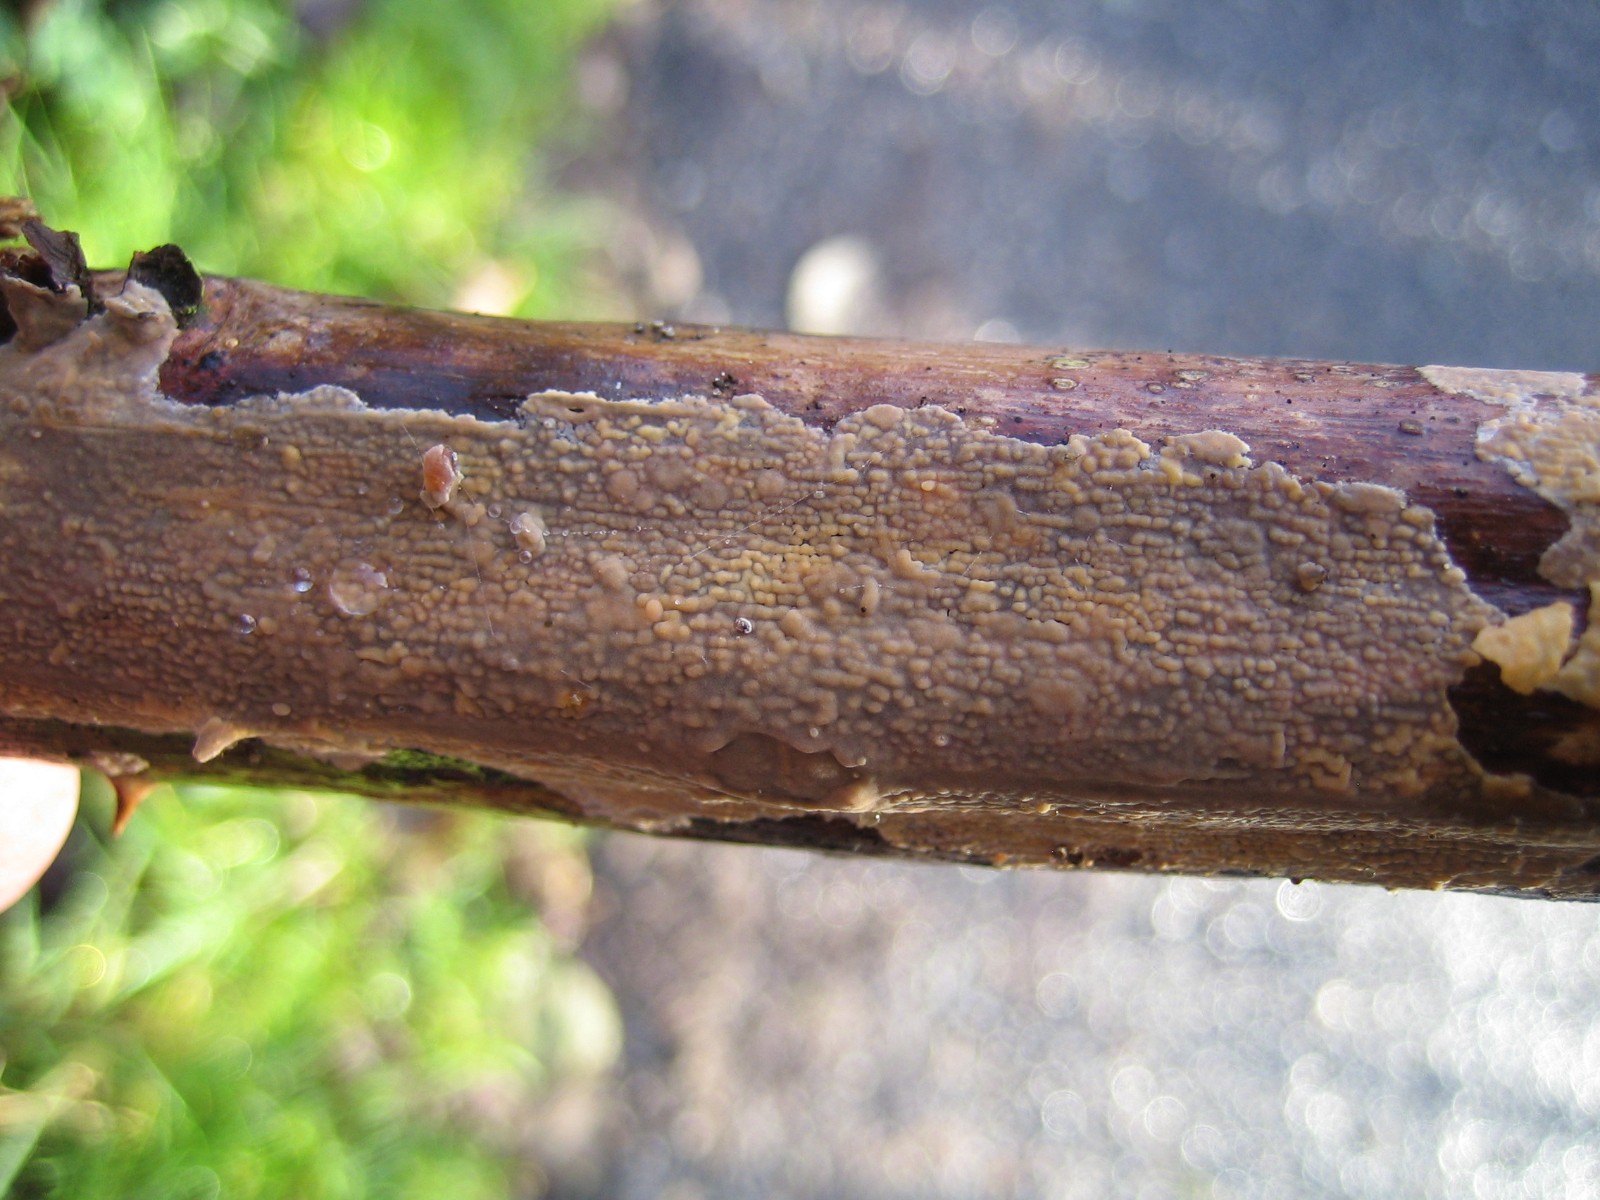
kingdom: Fungi
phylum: Basidiomycota
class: Agaricomycetes
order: Corticiales
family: Corticiaceae
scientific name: Corticiaceae
